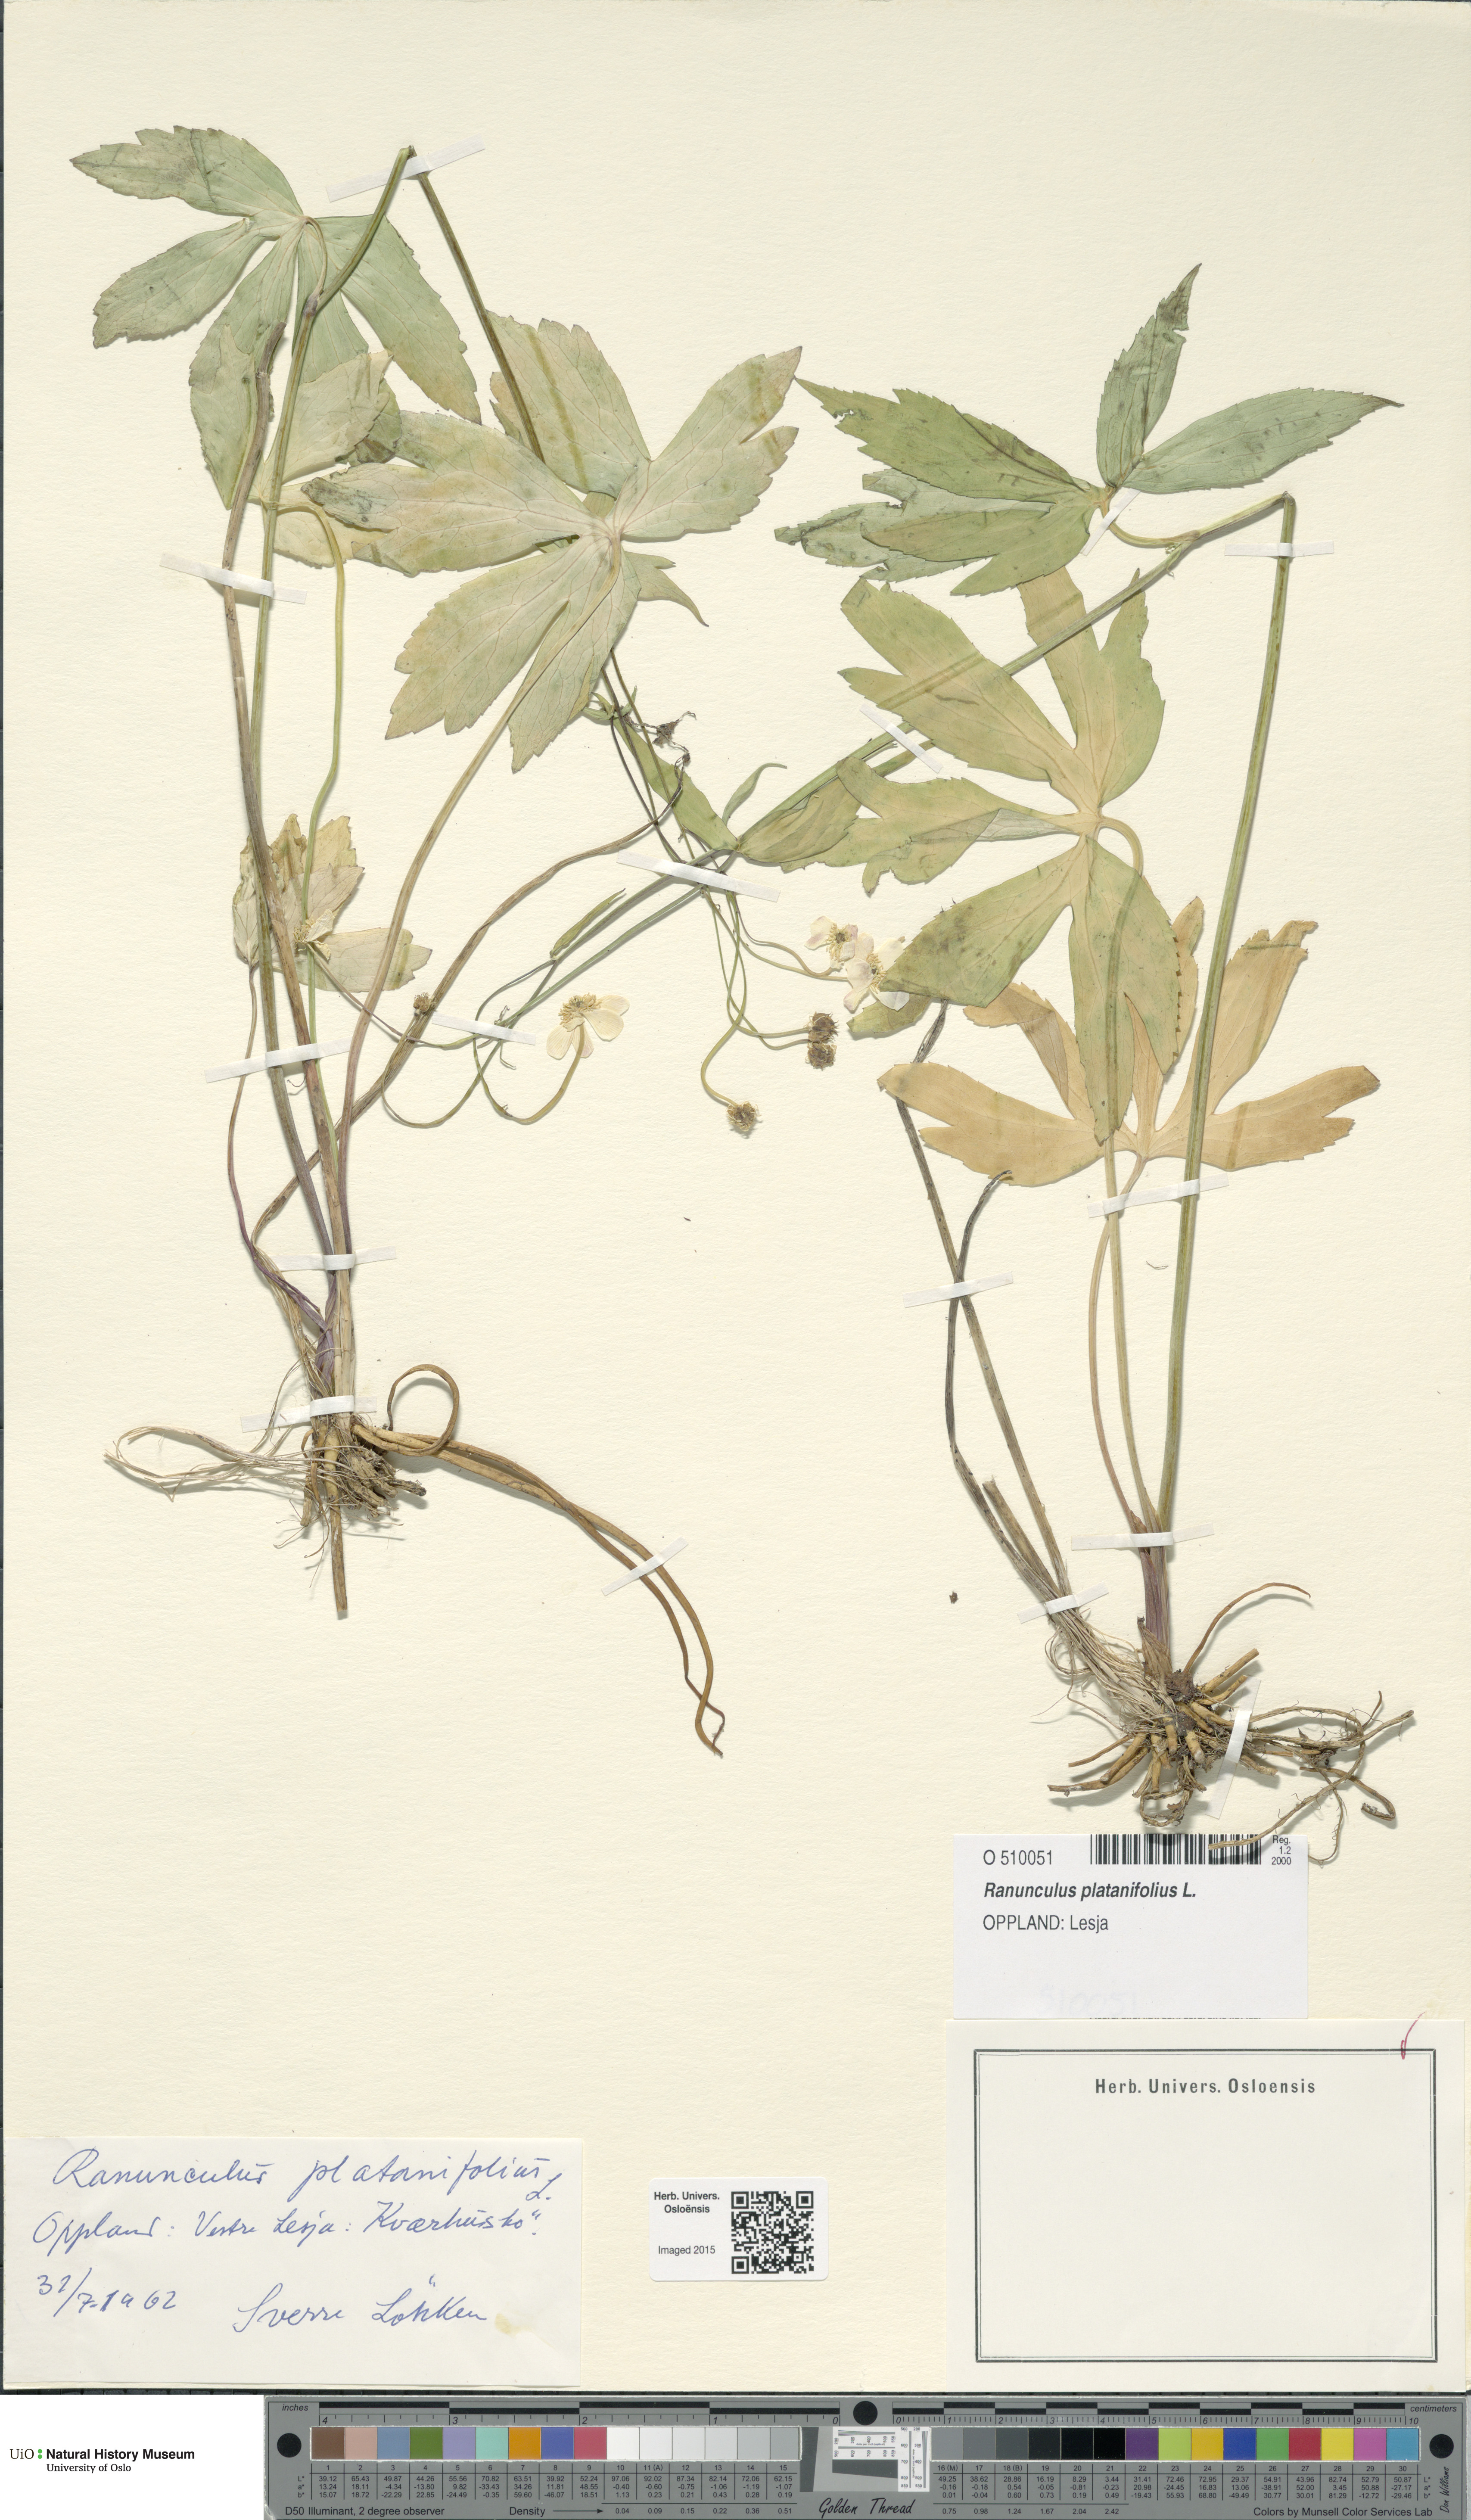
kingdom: Plantae
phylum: Tracheophyta
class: Magnoliopsida
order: Ranunculales
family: Ranunculaceae
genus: Ranunculus
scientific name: Ranunculus platanifolius
